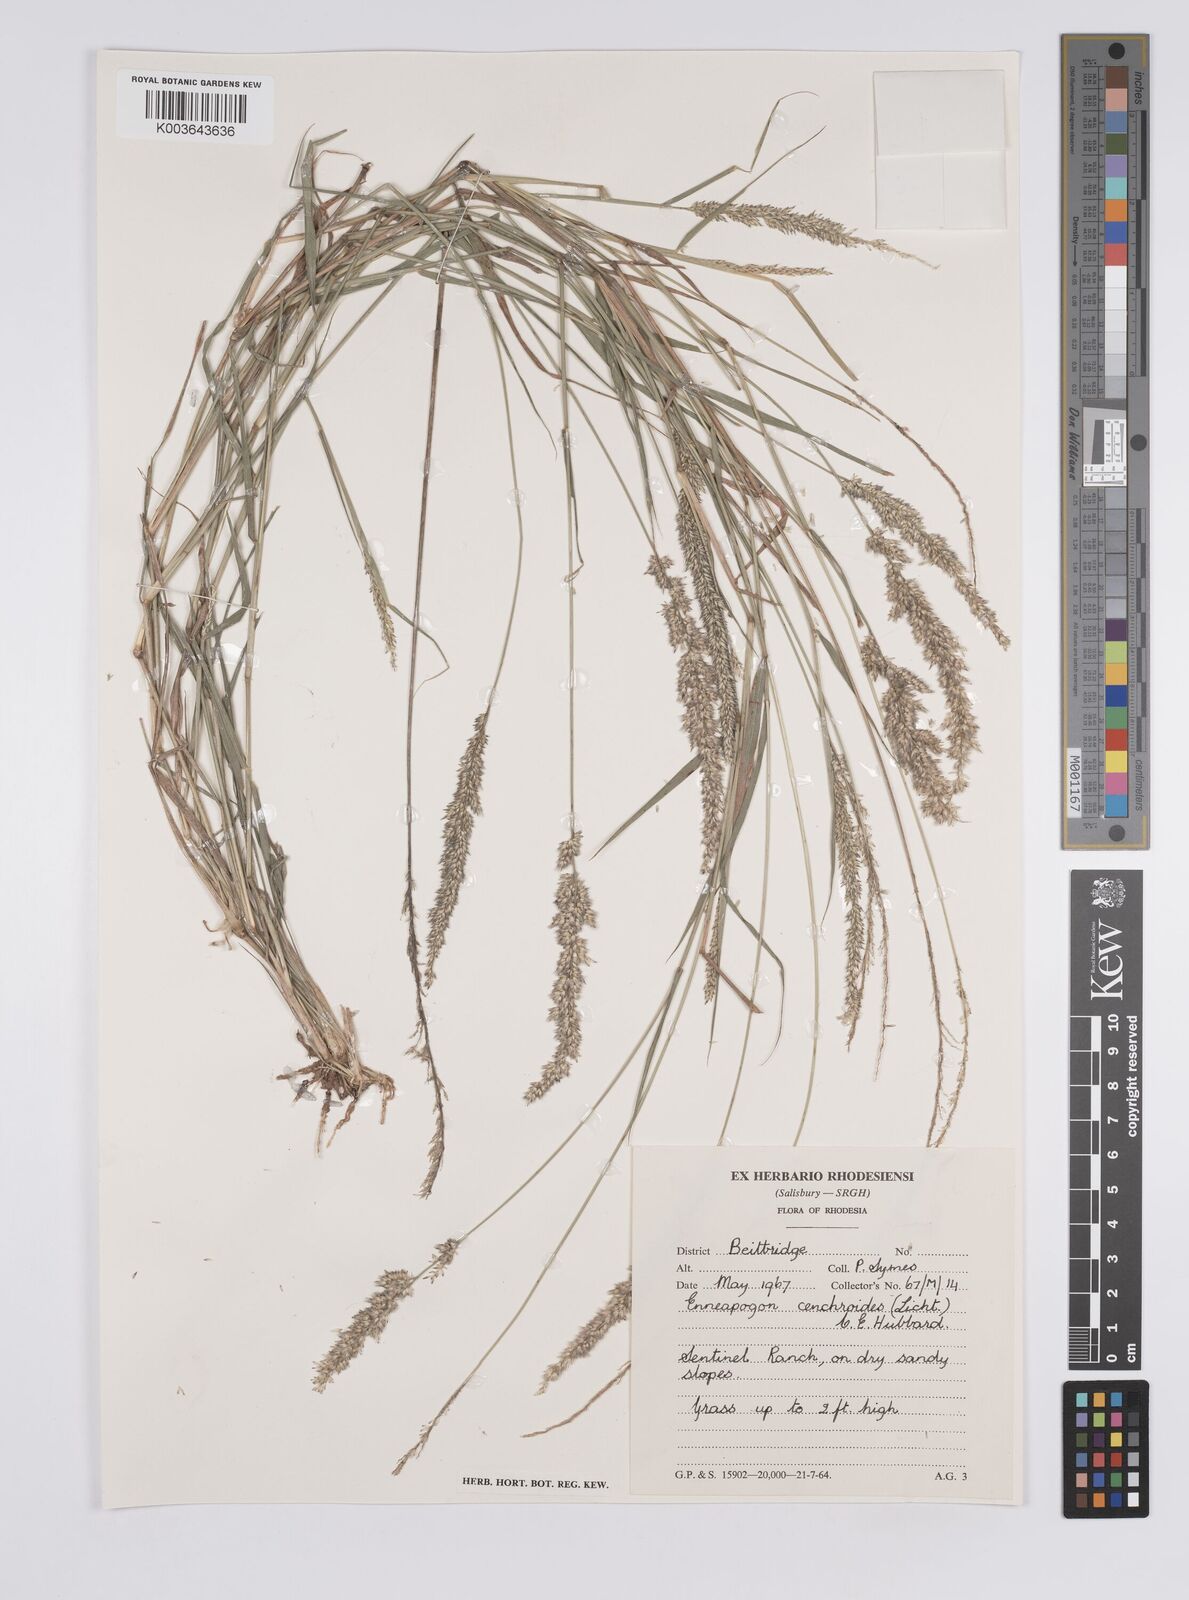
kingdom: Plantae
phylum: Tracheophyta
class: Liliopsida
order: Poales
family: Poaceae
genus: Enneapogon
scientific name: Enneapogon cenchroides
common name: Soft feather pappusgrass
